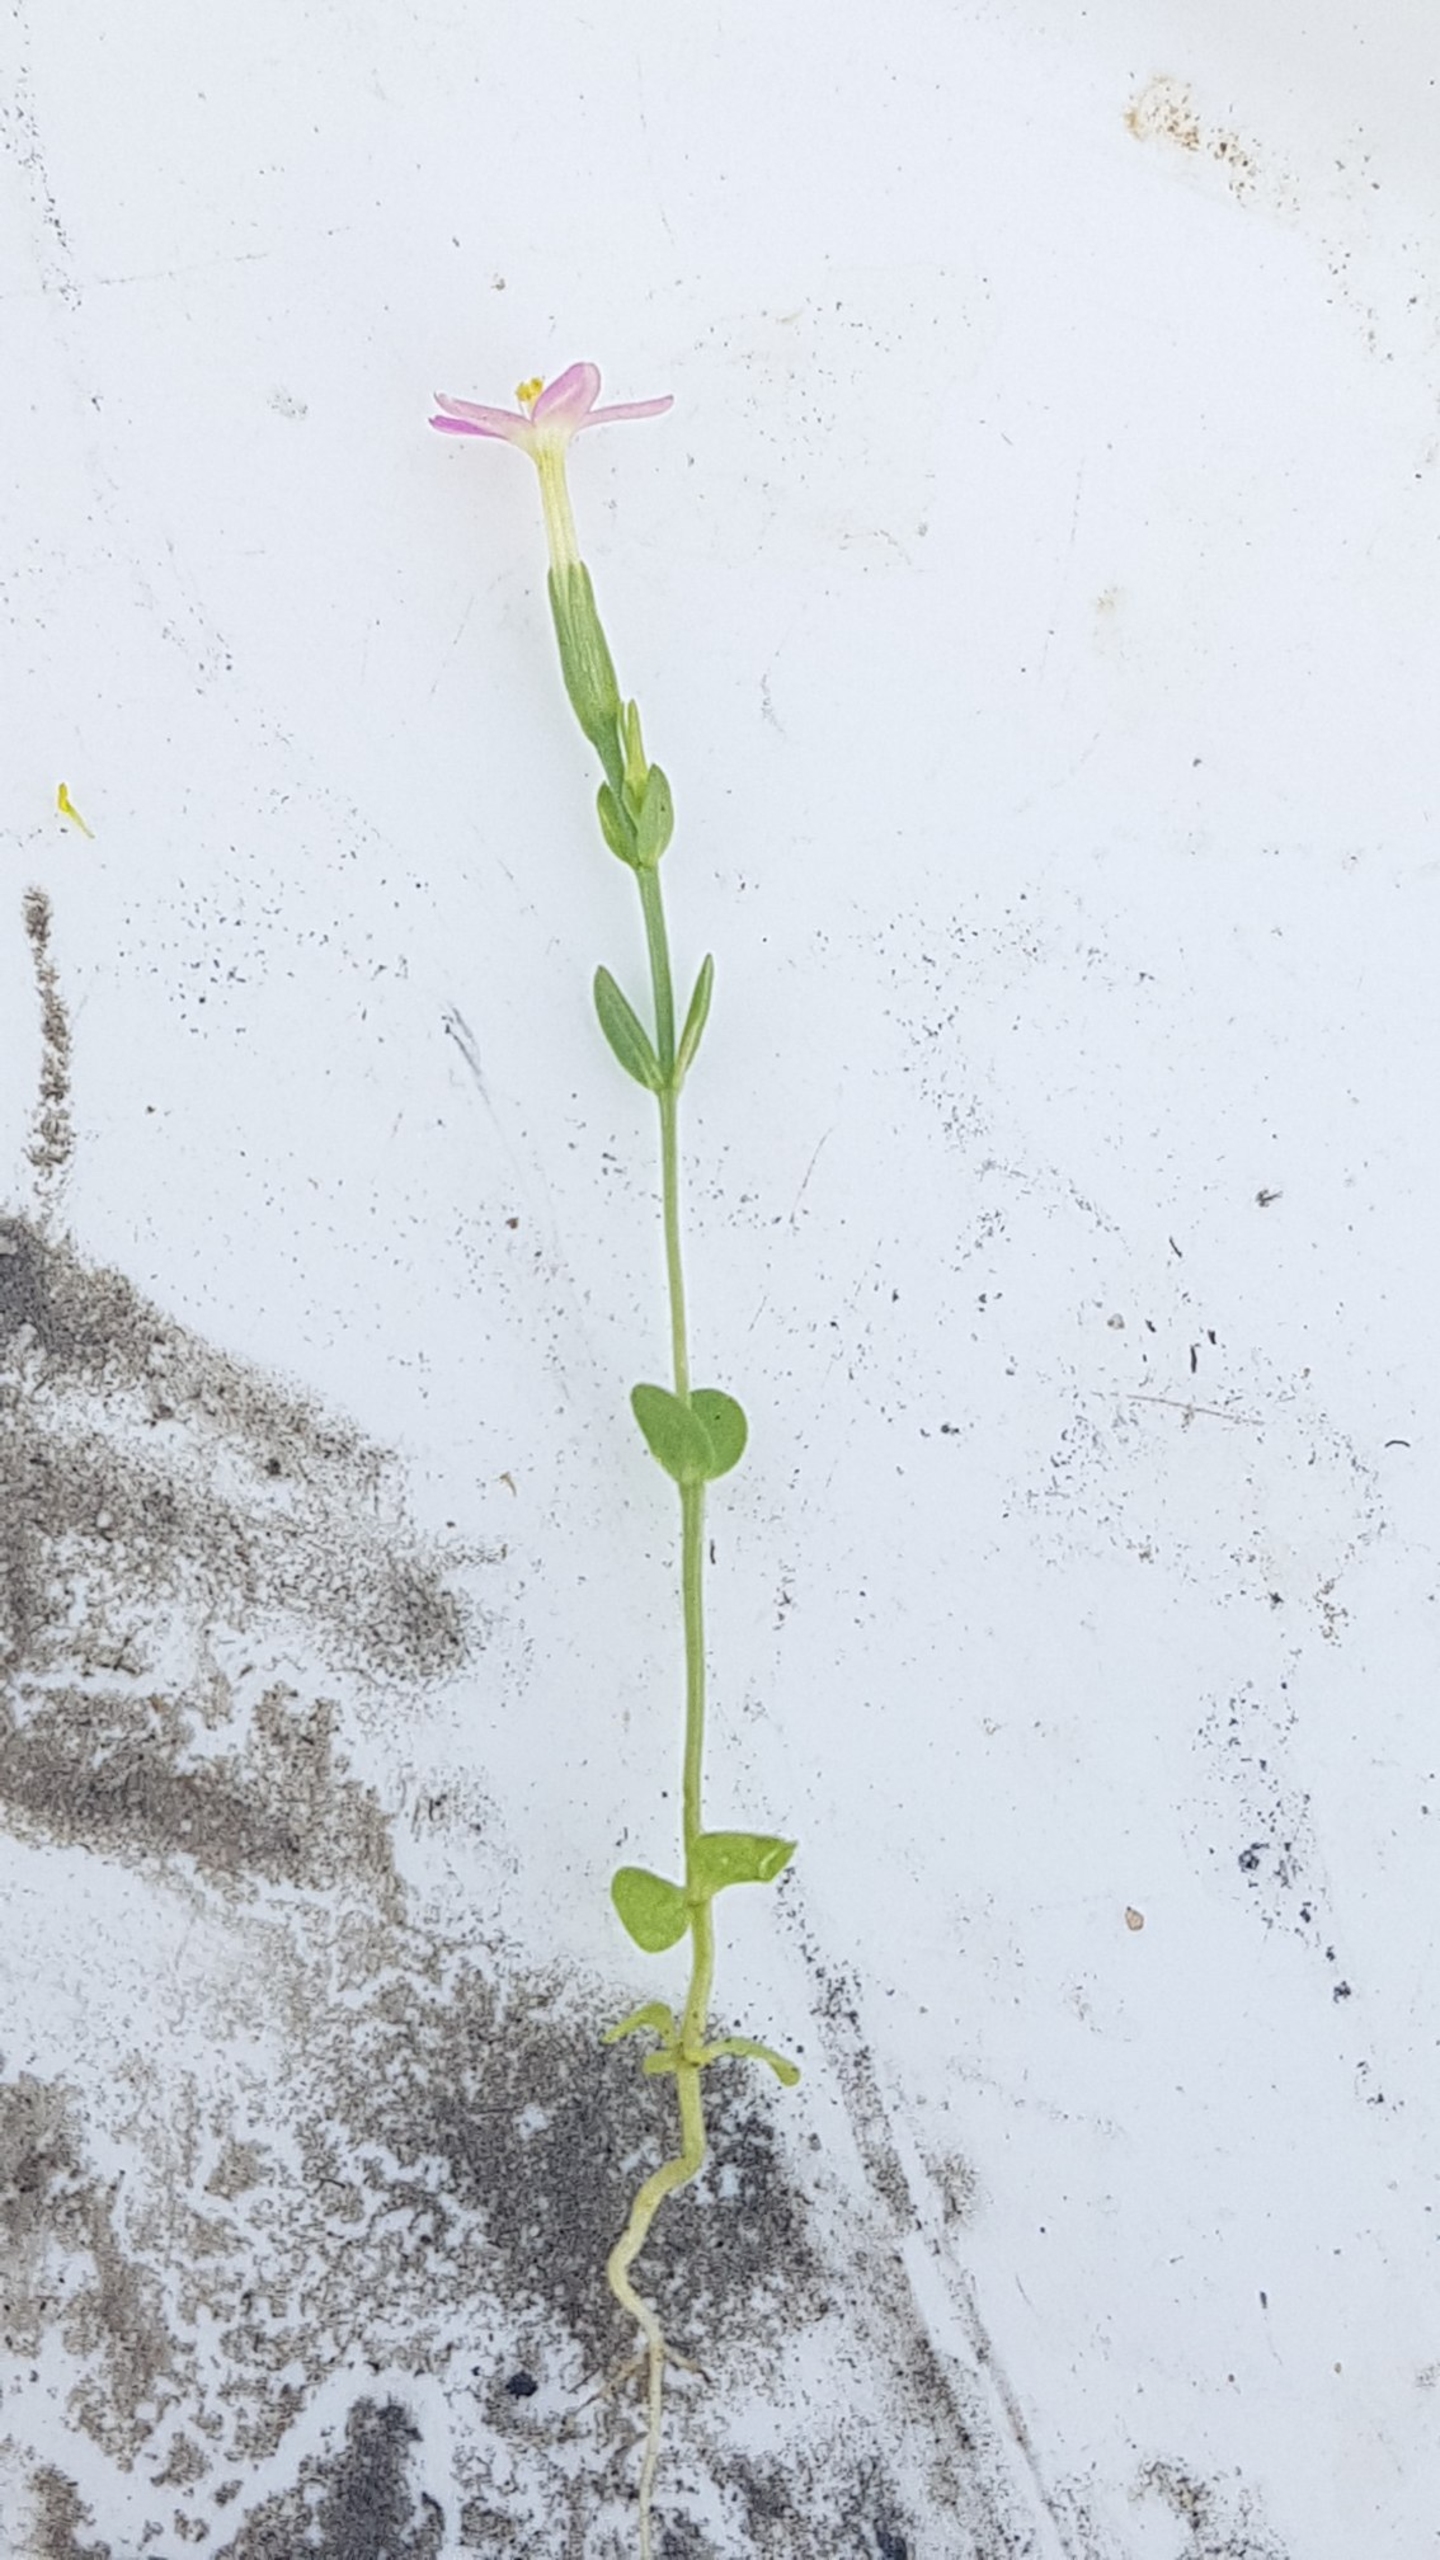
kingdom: Plantae
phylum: Tracheophyta
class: Magnoliopsida
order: Gentianales
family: Gentianaceae
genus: Centaurium
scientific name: Centaurium pulchellum
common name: Liden tusindgylden
